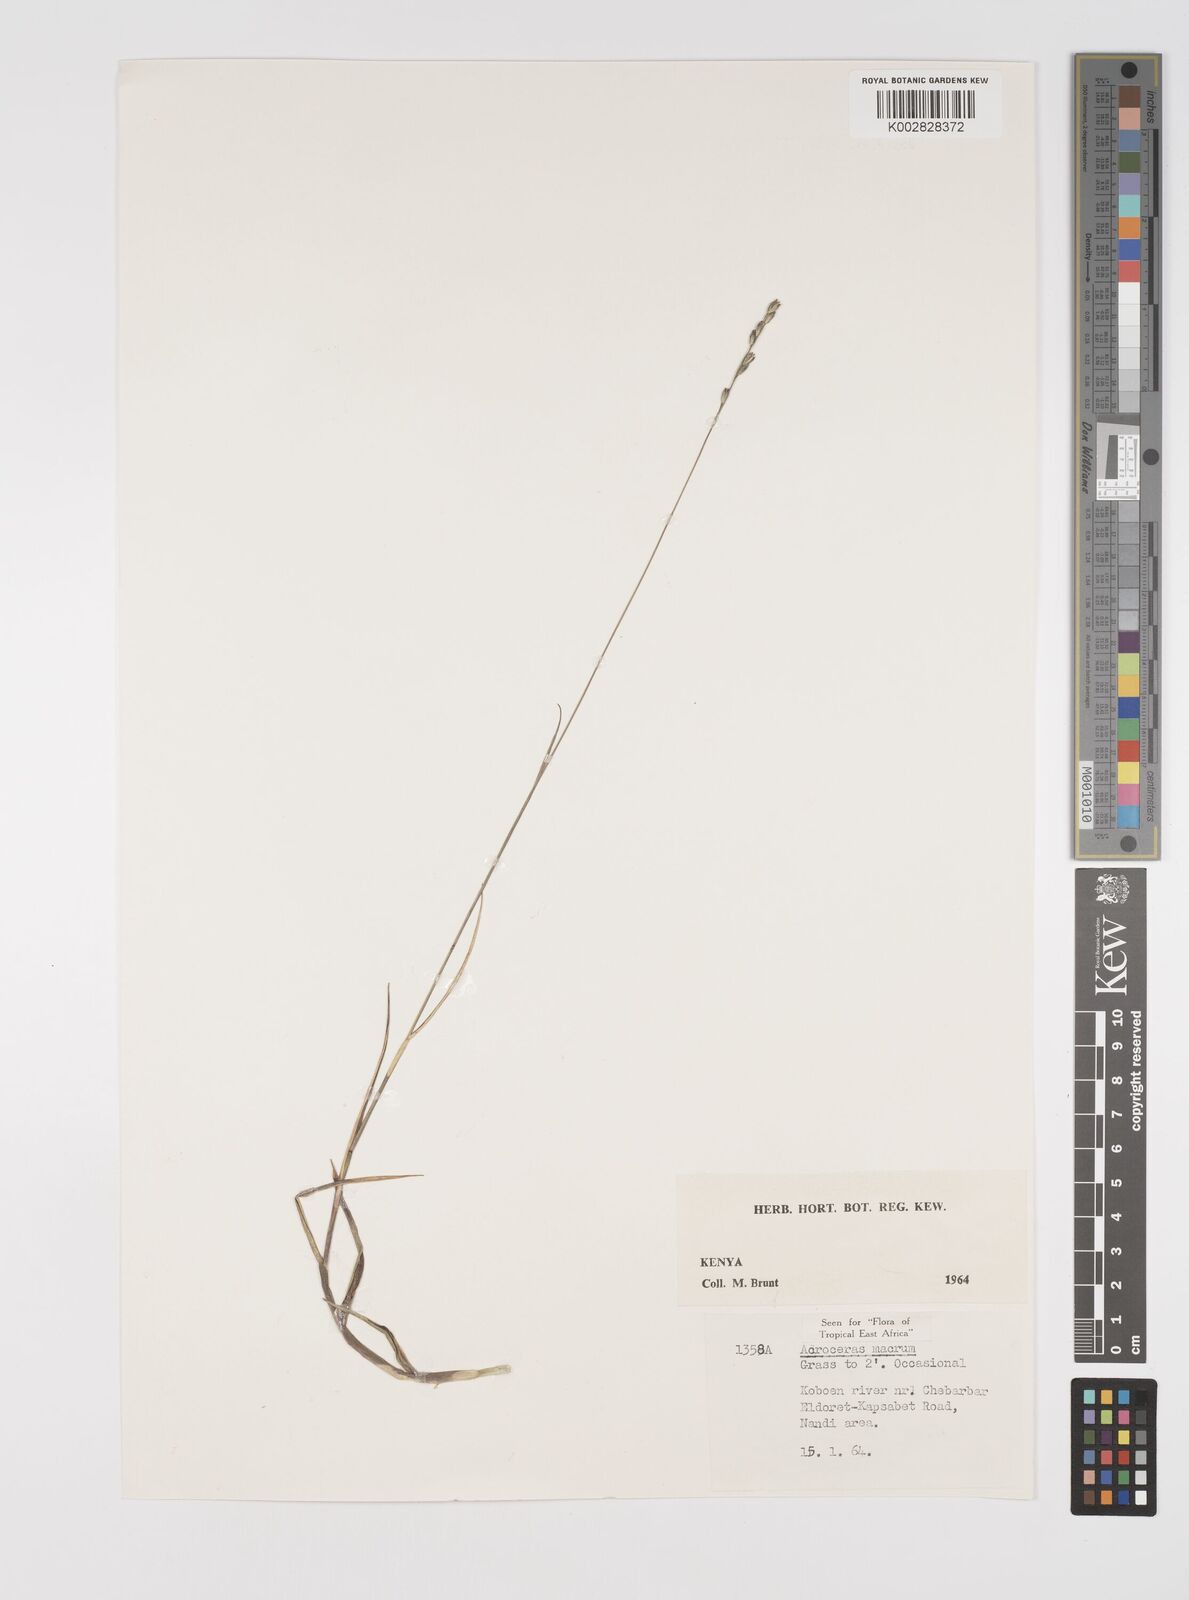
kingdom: Plantae
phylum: Tracheophyta
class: Liliopsida
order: Poales
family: Poaceae
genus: Acroceras
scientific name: Acroceras macrum
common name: Nyl grass
